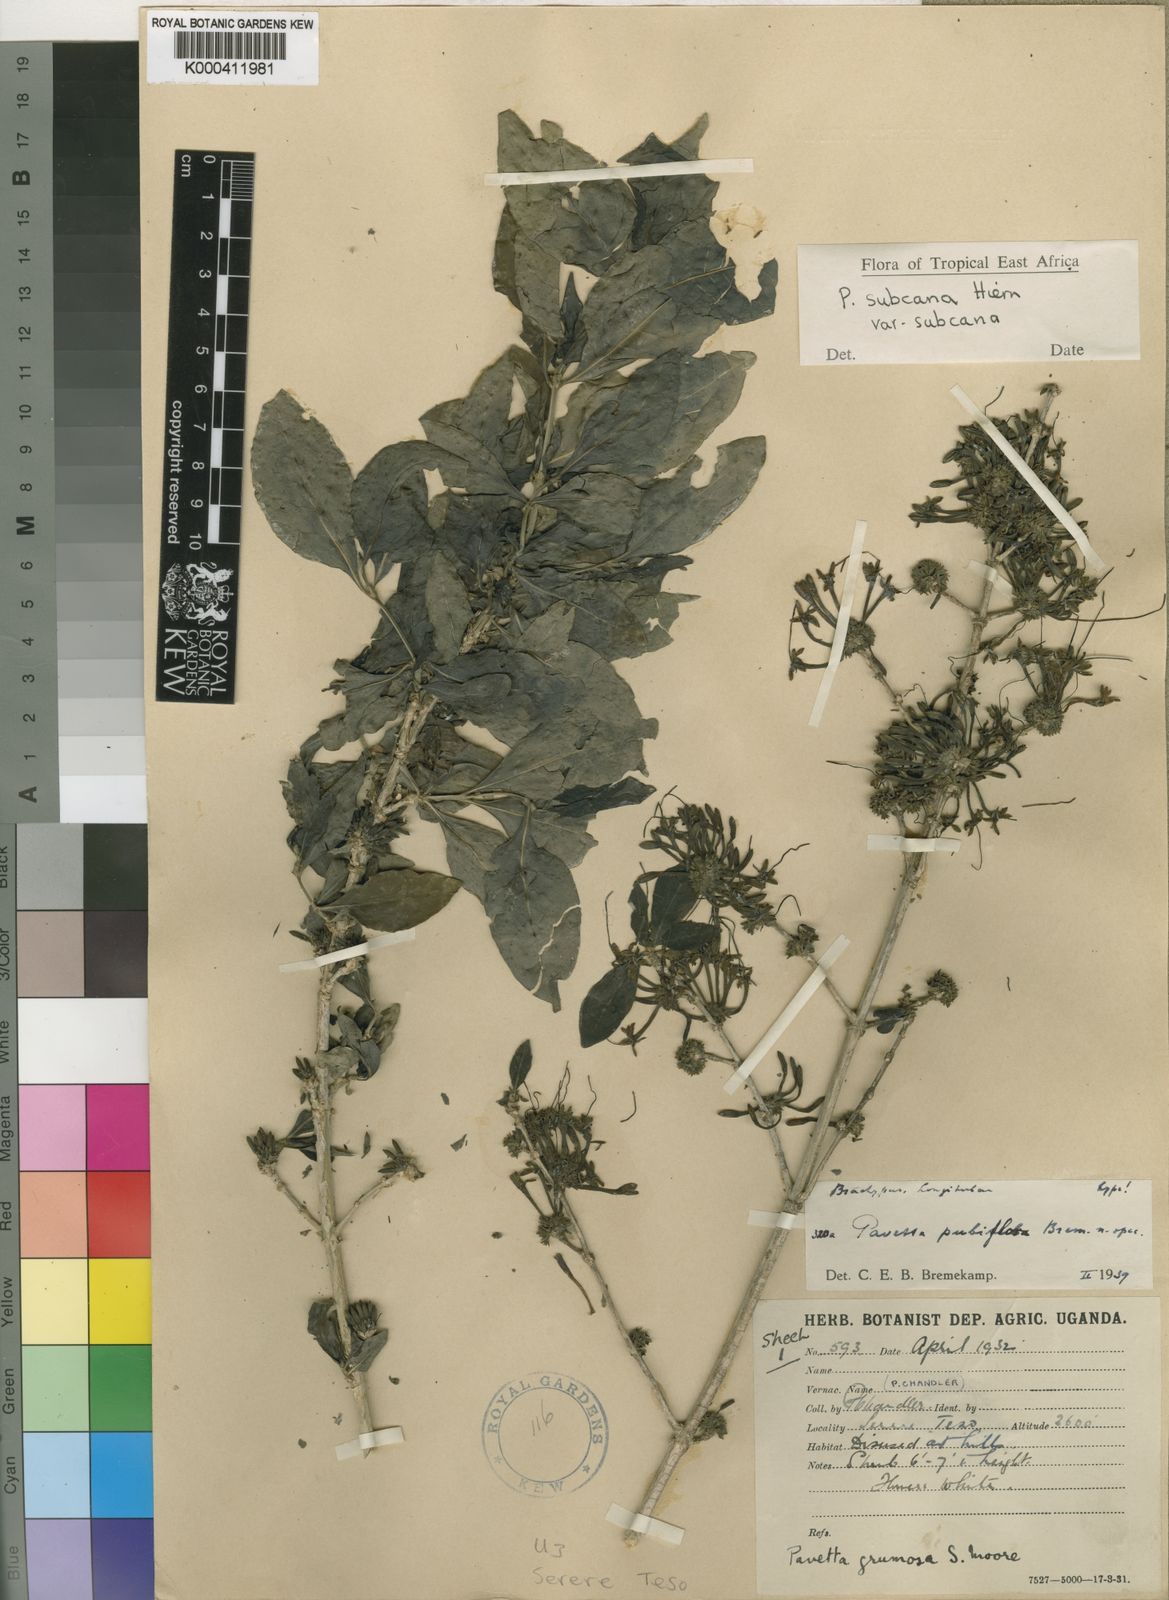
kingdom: Plantae
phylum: Tracheophyta
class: Magnoliopsida
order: Gentianales
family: Rubiaceae
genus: Pavetta
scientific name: Pavetta subcana
